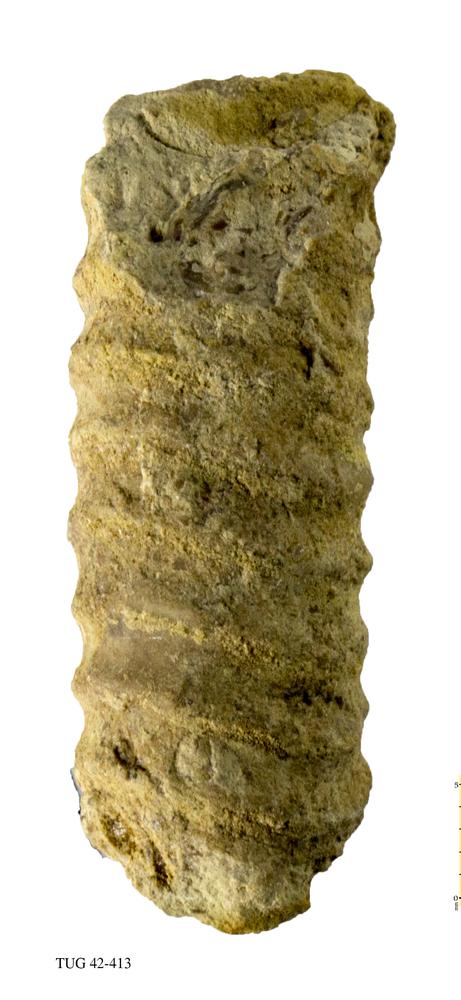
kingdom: Animalia
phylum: Mollusca
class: Cephalopoda
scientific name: Cephalopoda
